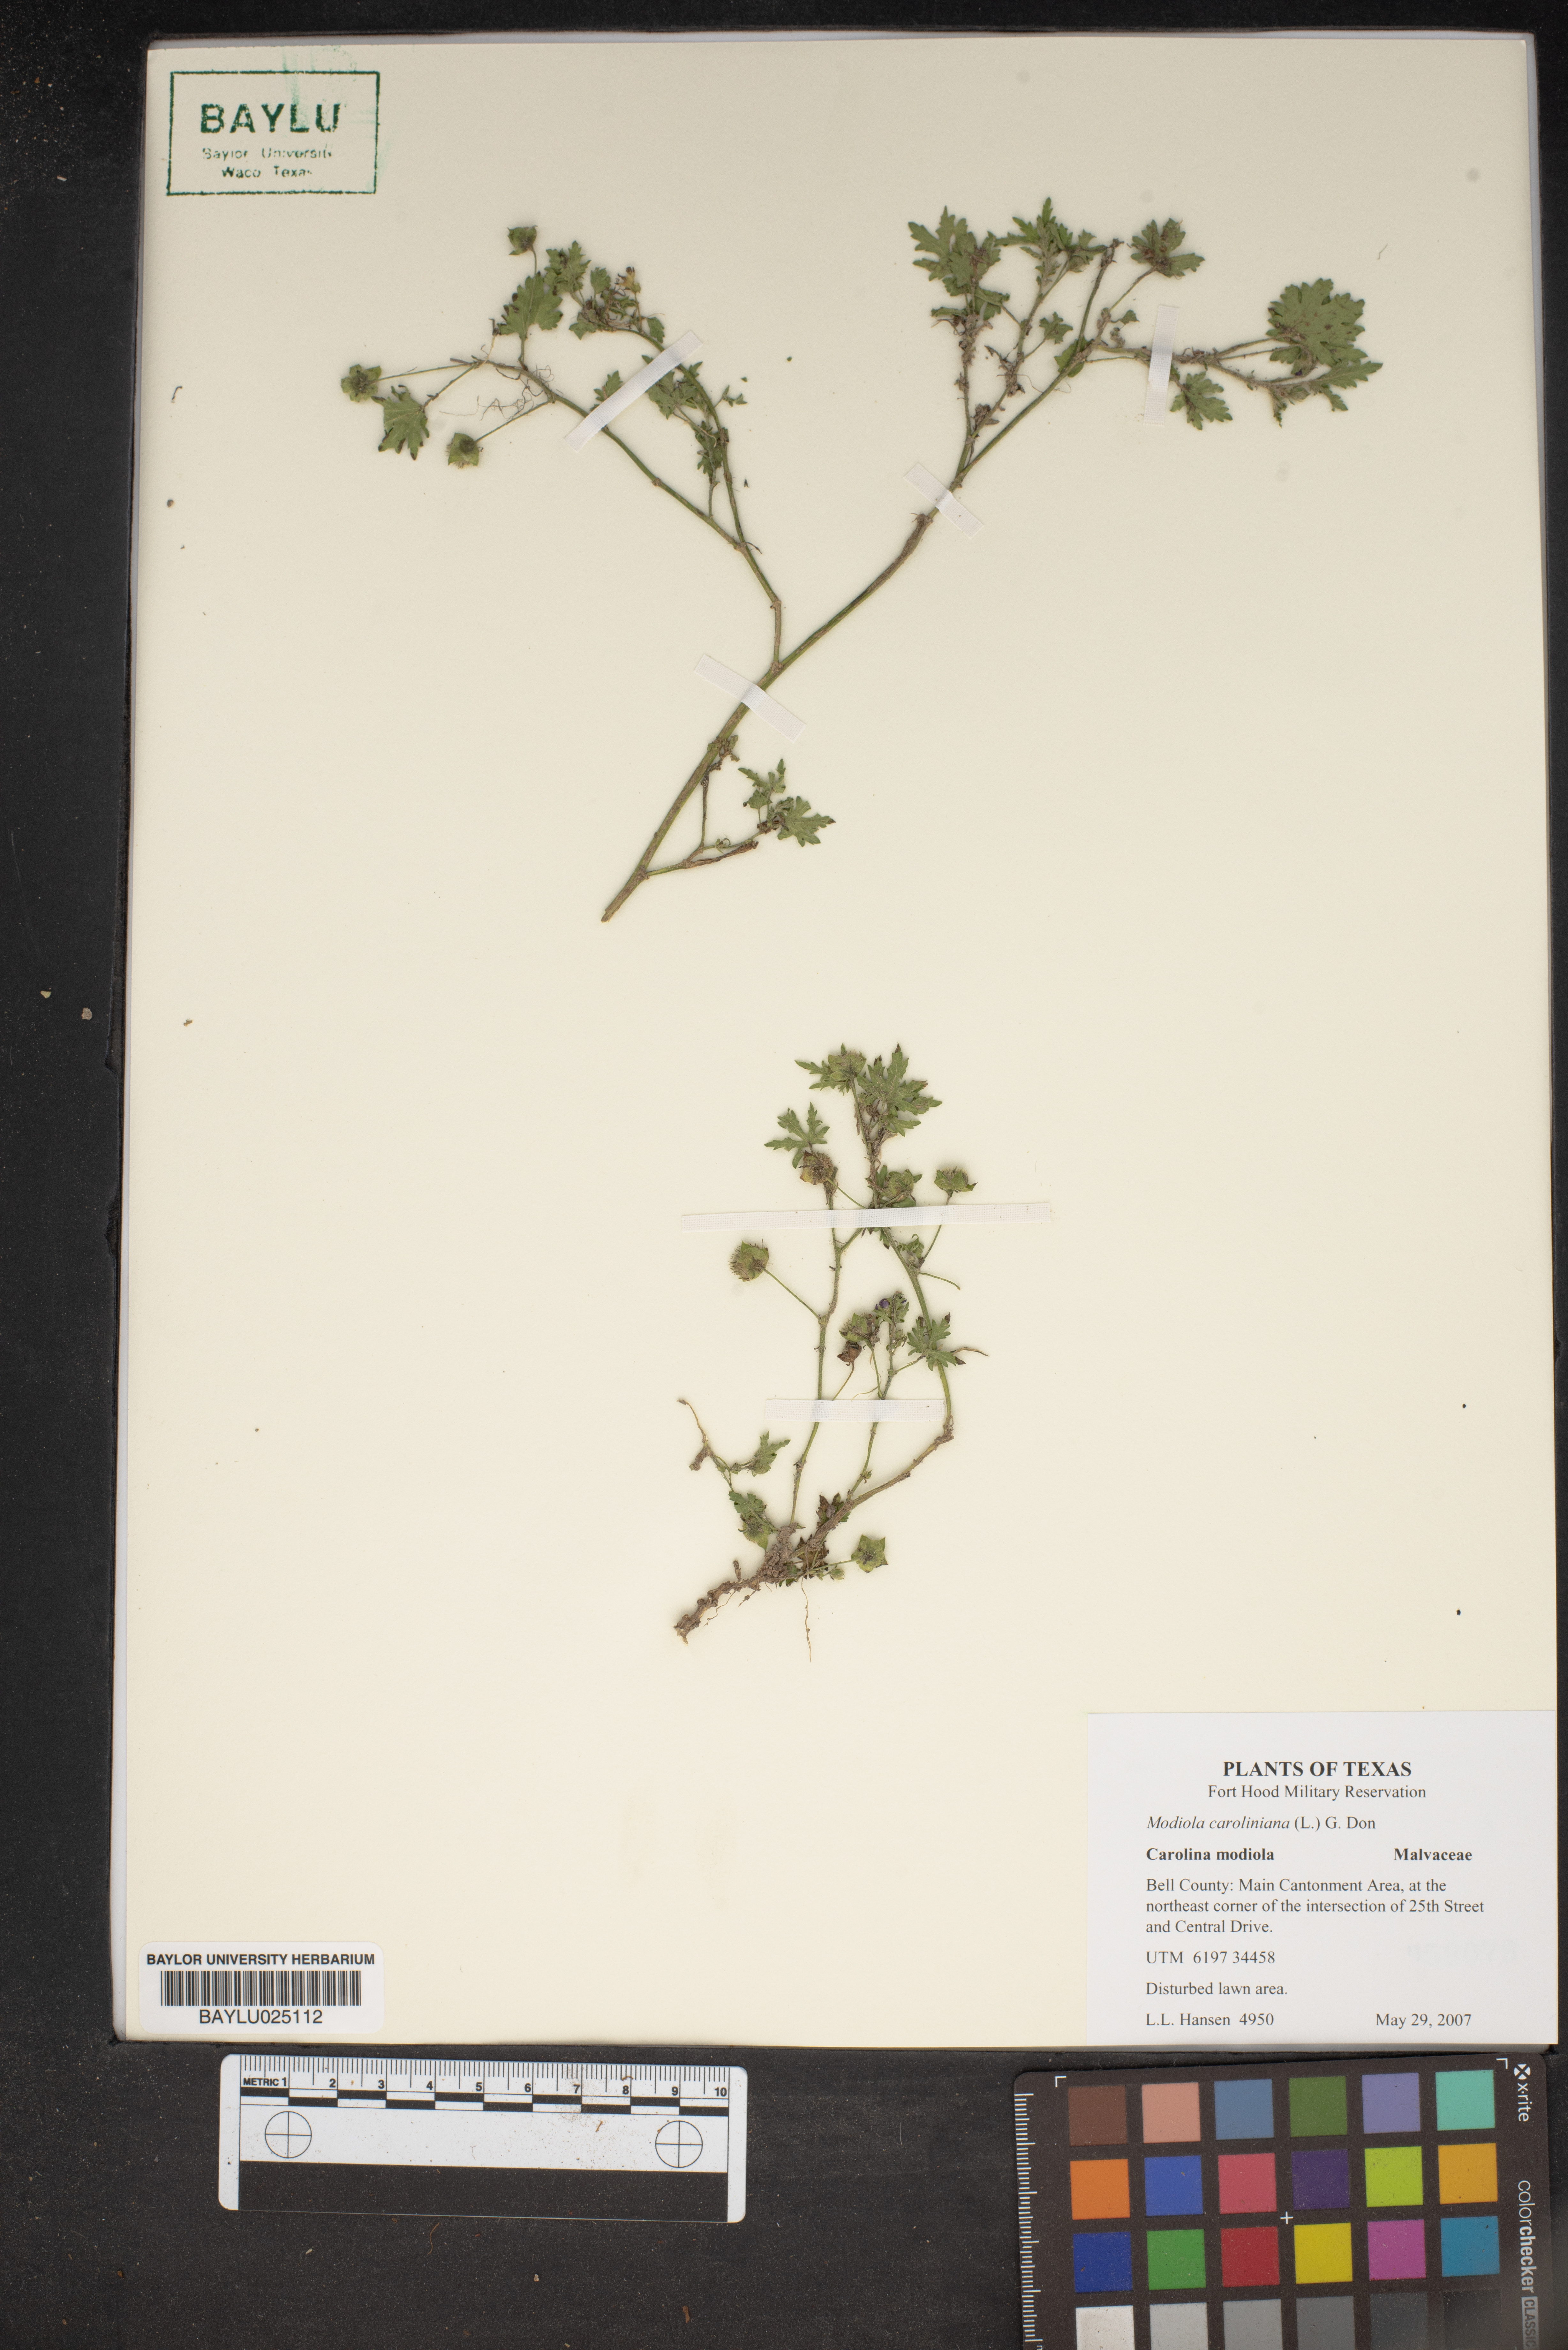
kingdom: Plantae
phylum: Tracheophyta
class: Magnoliopsida
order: Malvales
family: Malvaceae
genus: Modiola
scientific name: Modiola caroliniana
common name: Carolina bristlemallow
